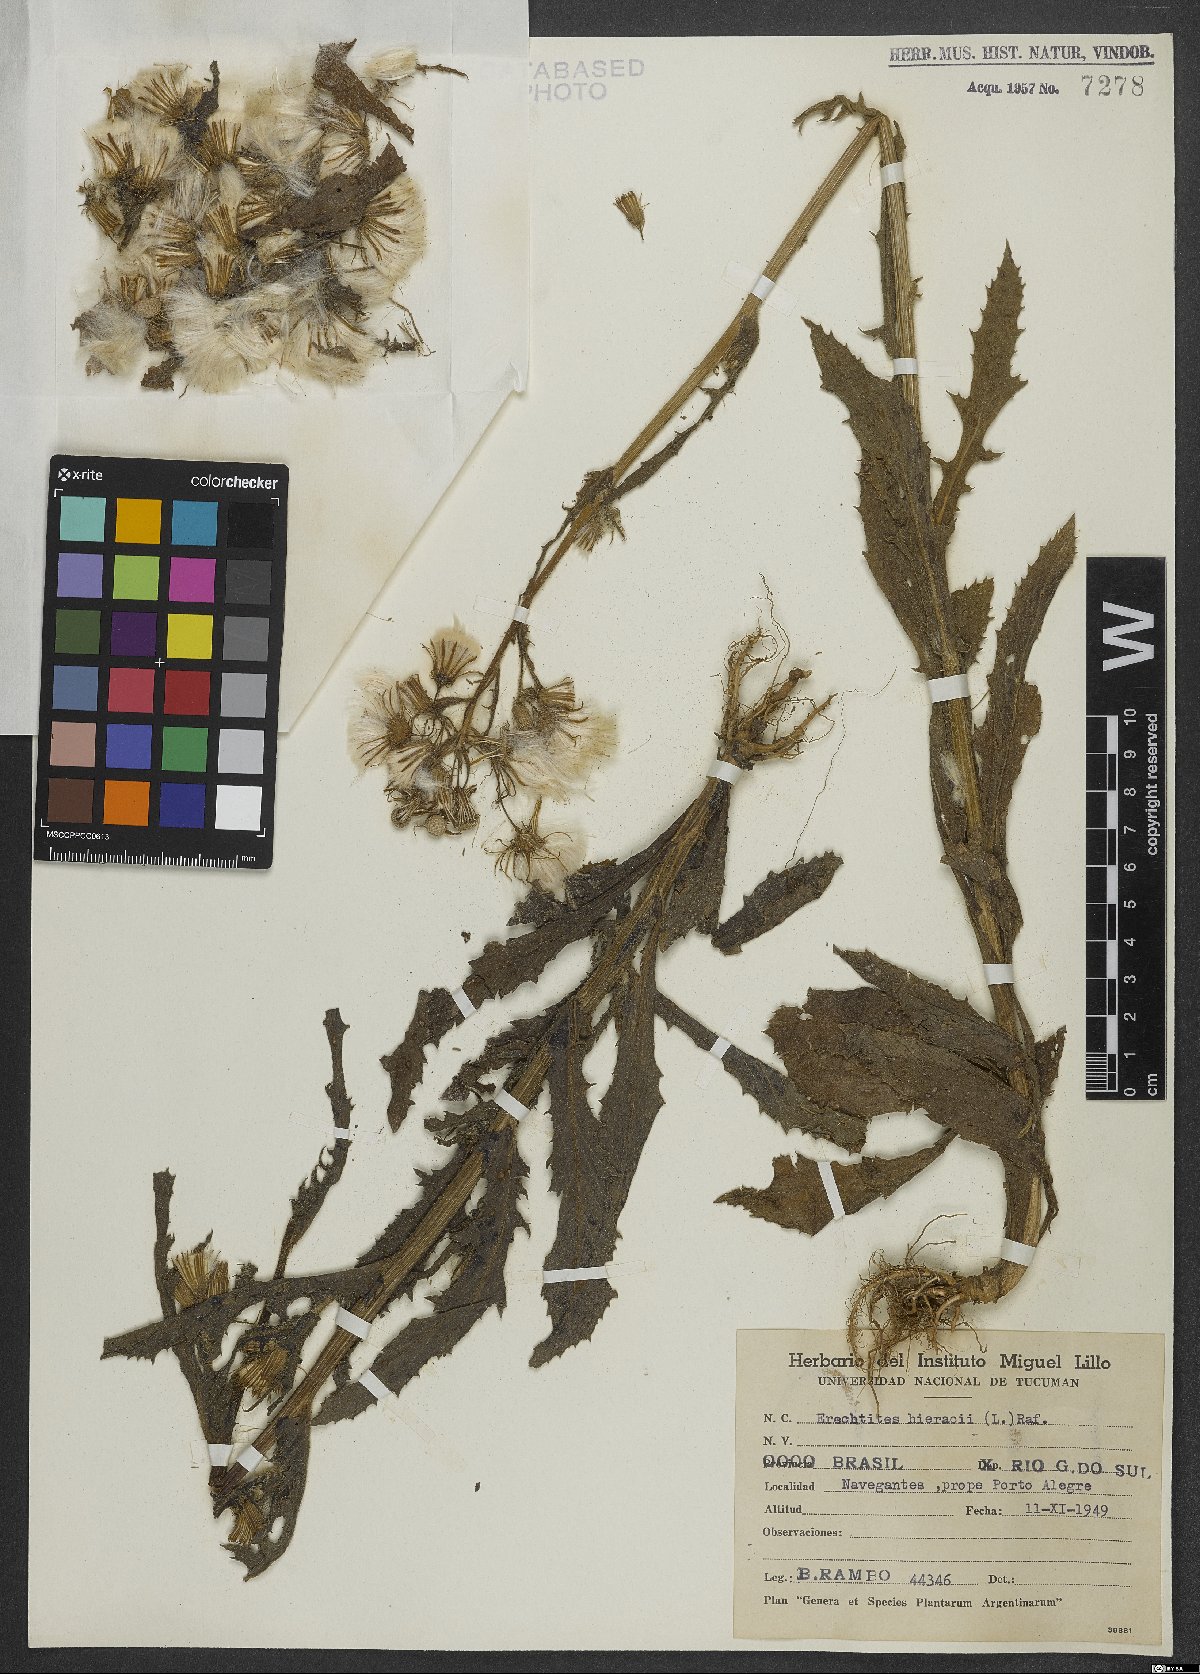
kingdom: Plantae
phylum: Tracheophyta
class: Magnoliopsida
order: Asterales
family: Asteraceae
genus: Erechtites
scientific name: Erechtites hieraciifolius
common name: American burnweed
